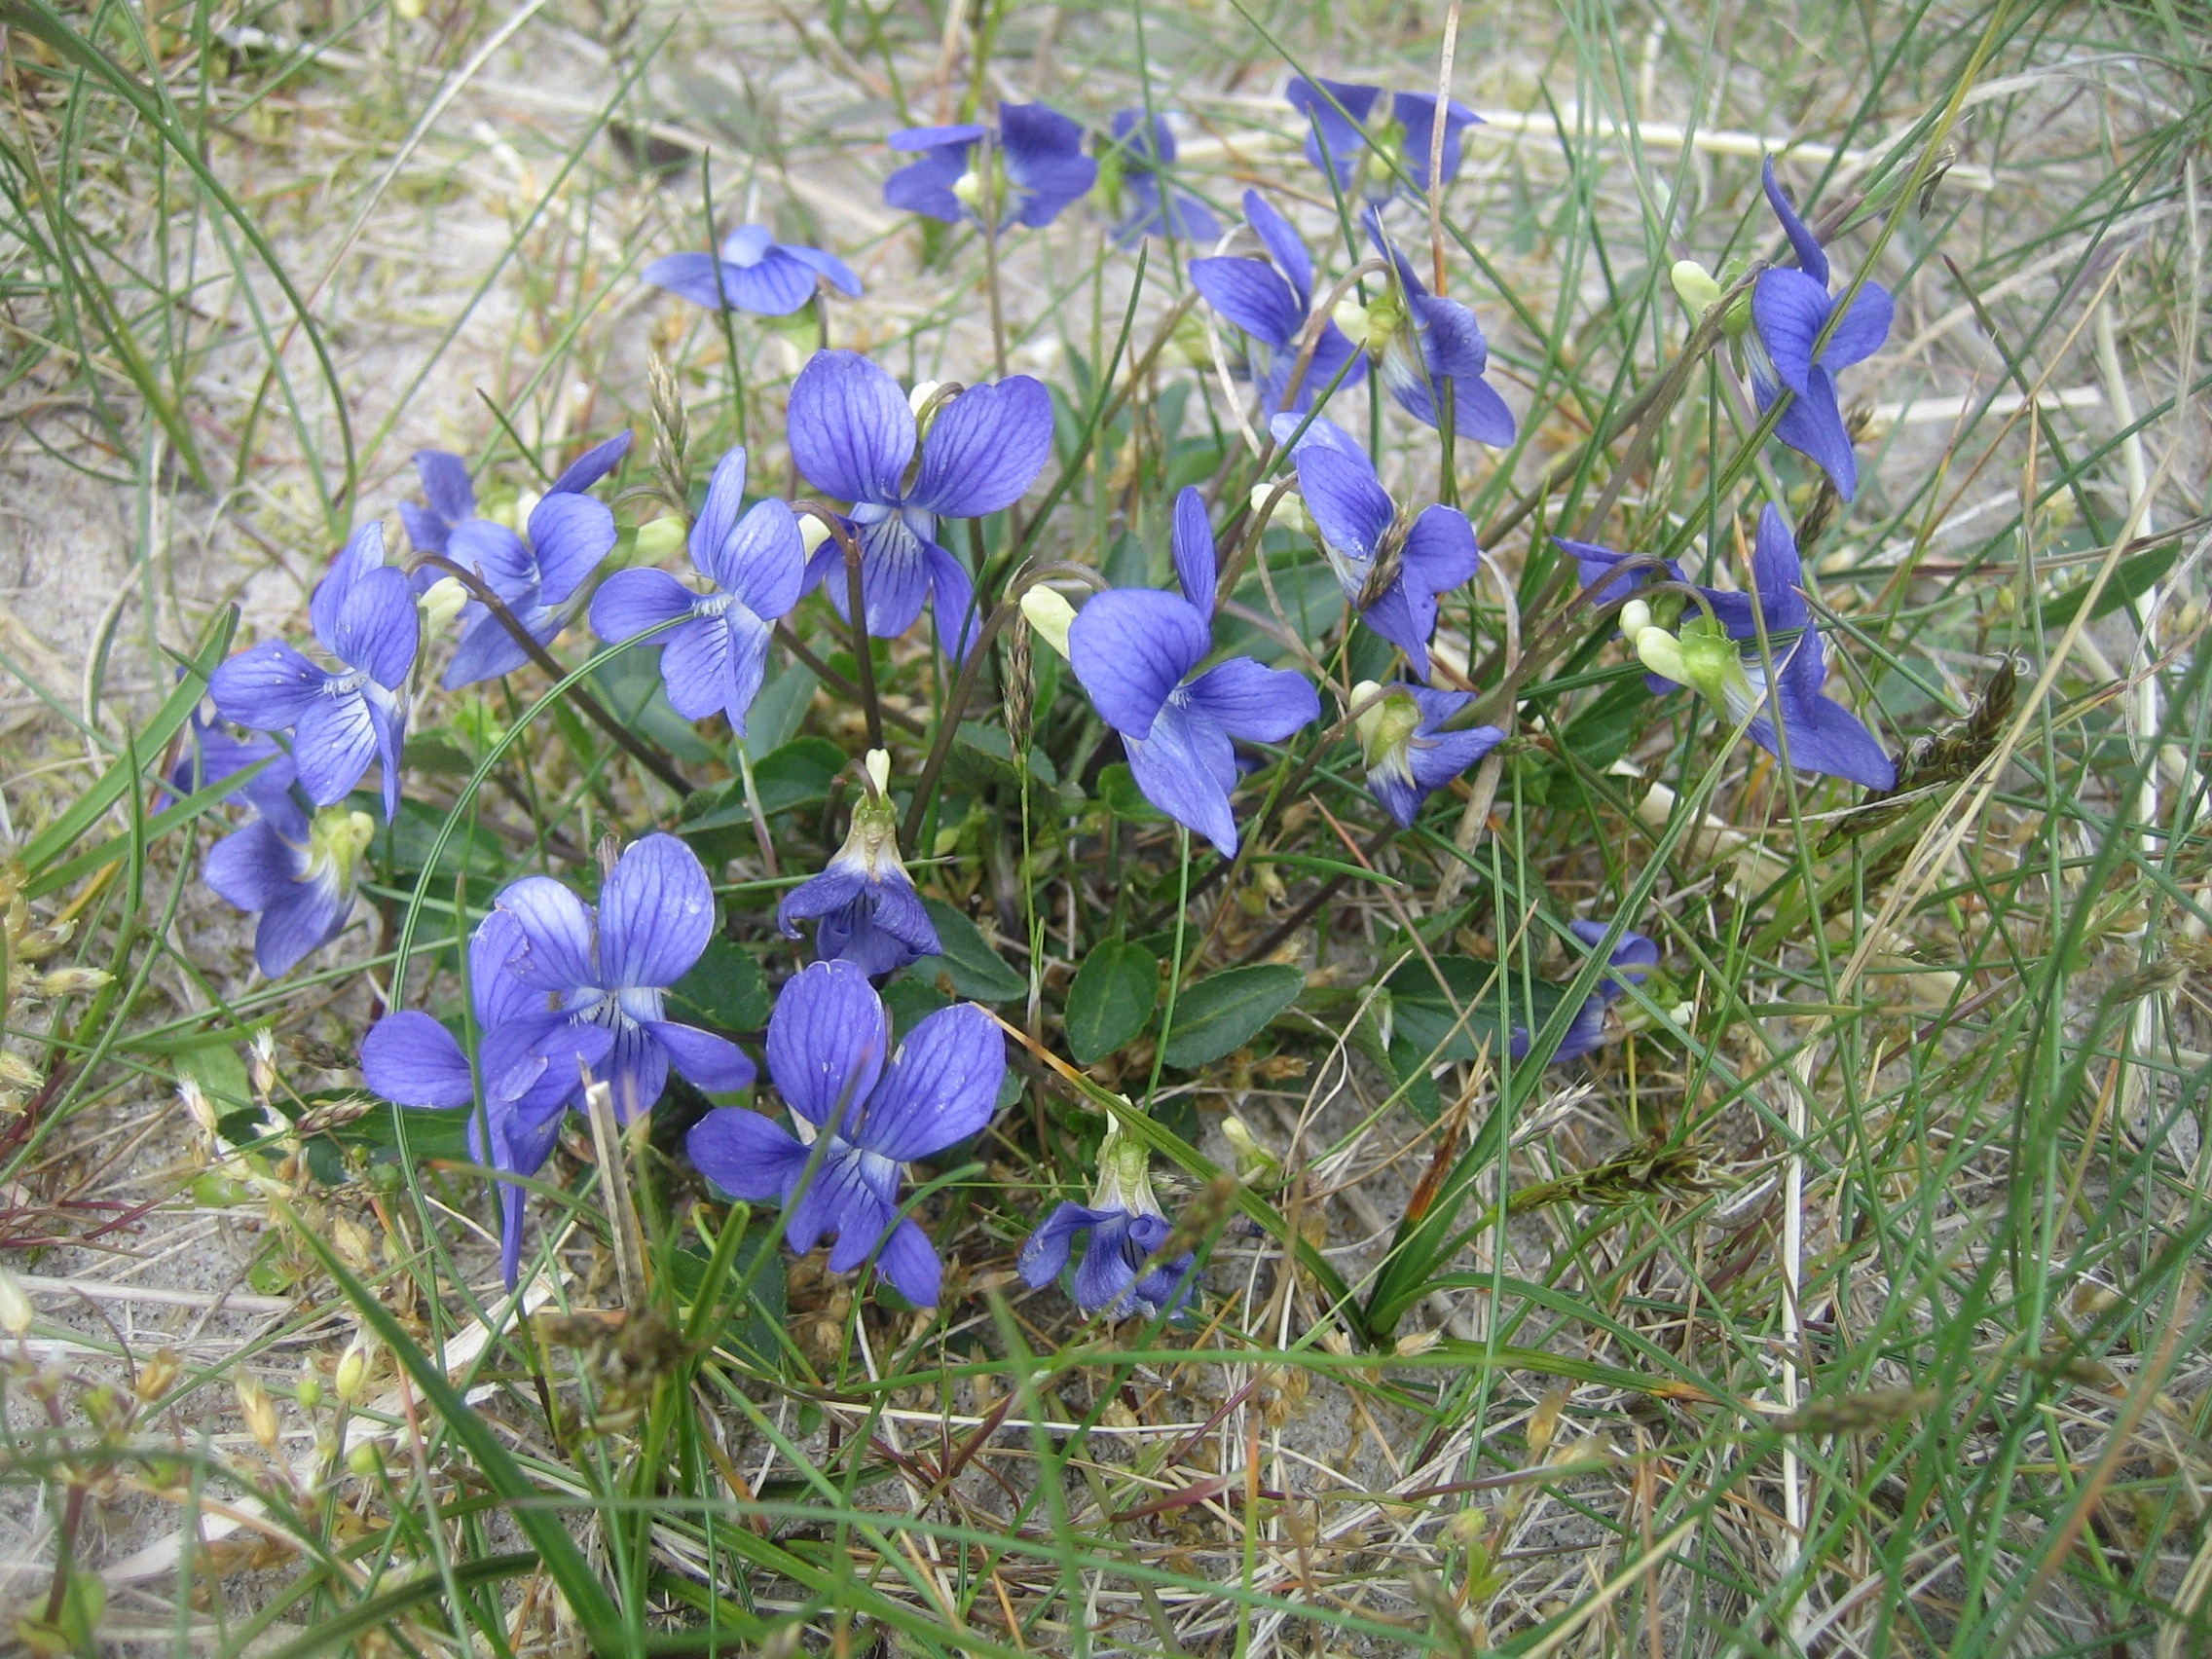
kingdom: Plantae
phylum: Tracheophyta
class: Magnoliopsida
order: Malpighiales
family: Violaceae
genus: Viola
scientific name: Viola canina
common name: Hunde-viol
